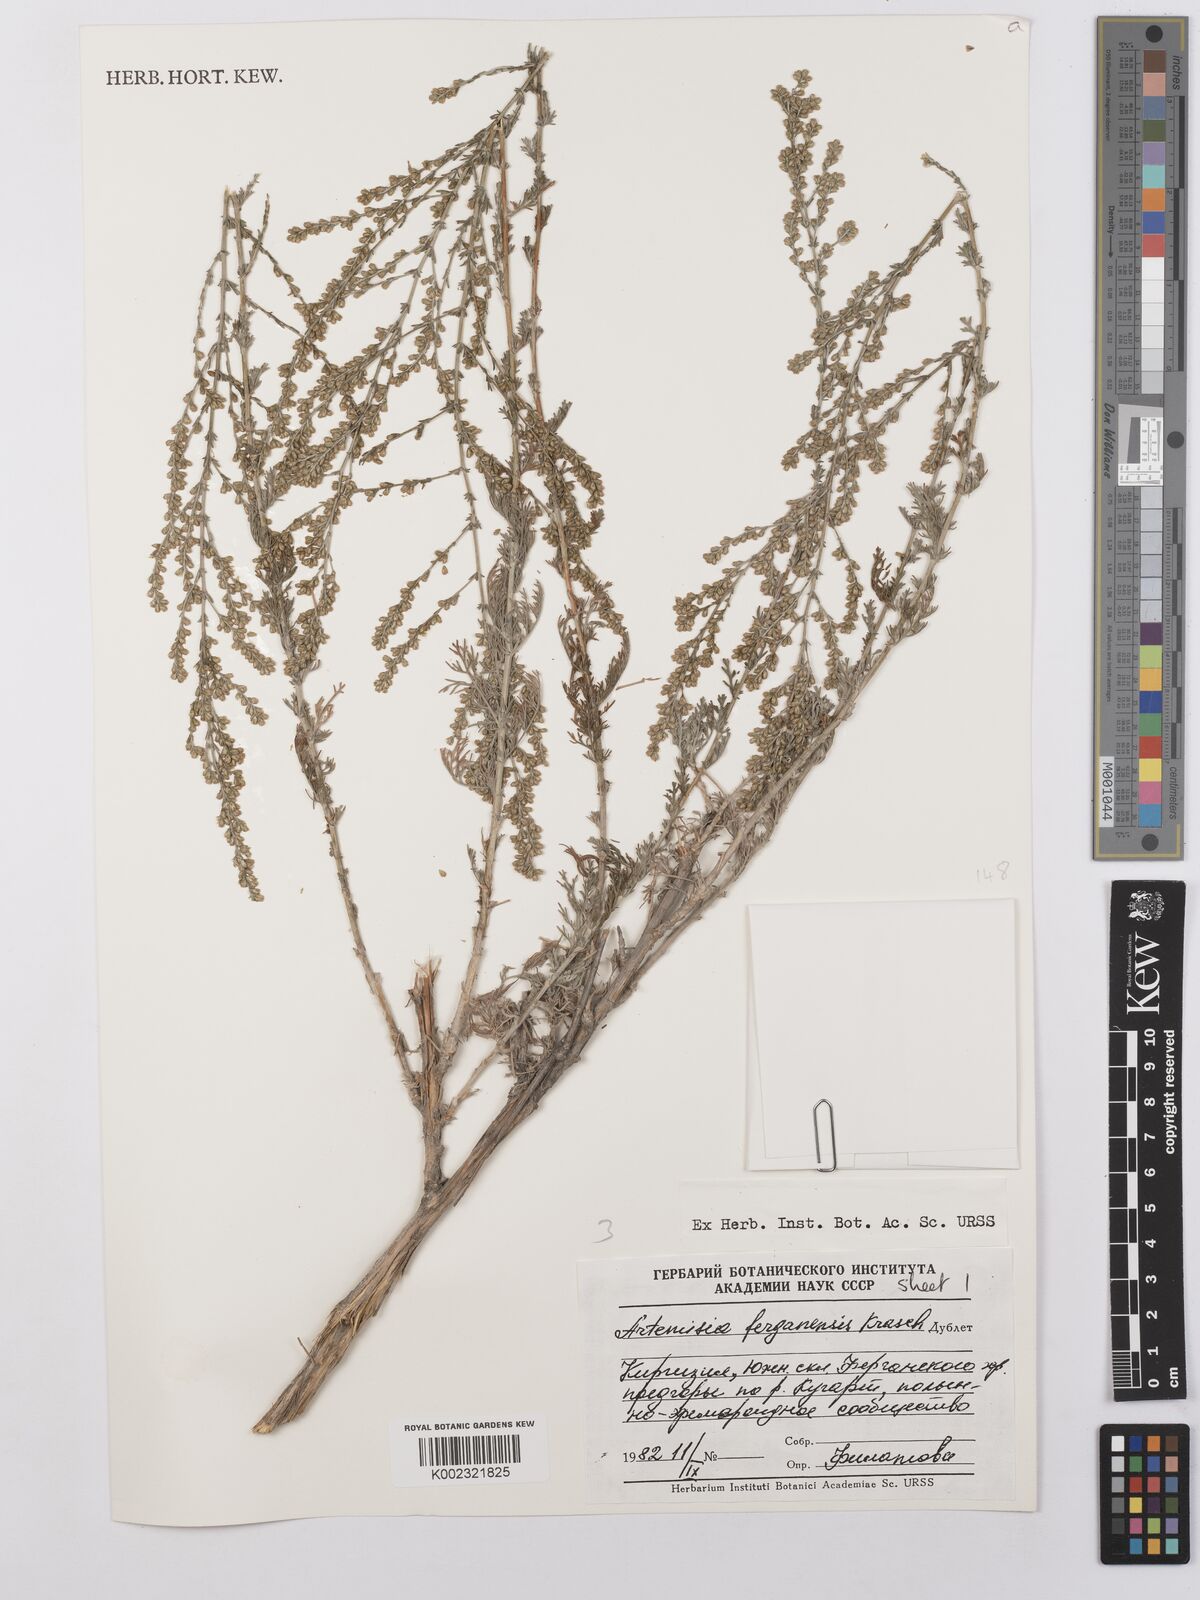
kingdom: Plantae
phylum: Tracheophyta
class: Magnoliopsida
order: Asterales
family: Asteraceae
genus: Artemisia
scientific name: Artemisia ferganensis
